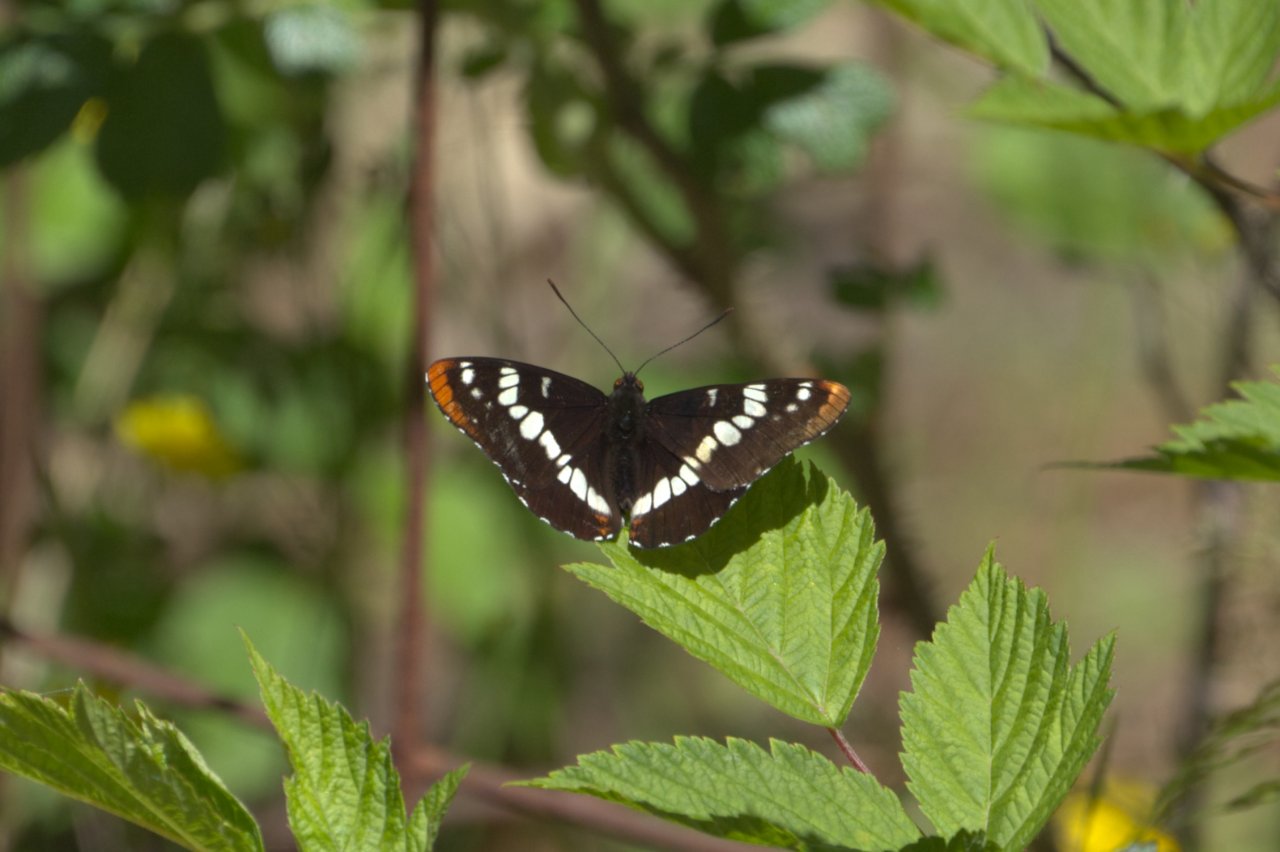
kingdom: Animalia
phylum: Arthropoda
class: Insecta
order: Lepidoptera
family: Nymphalidae
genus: Limenitis
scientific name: Limenitis lorquini
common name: Lorquin's Admiral
